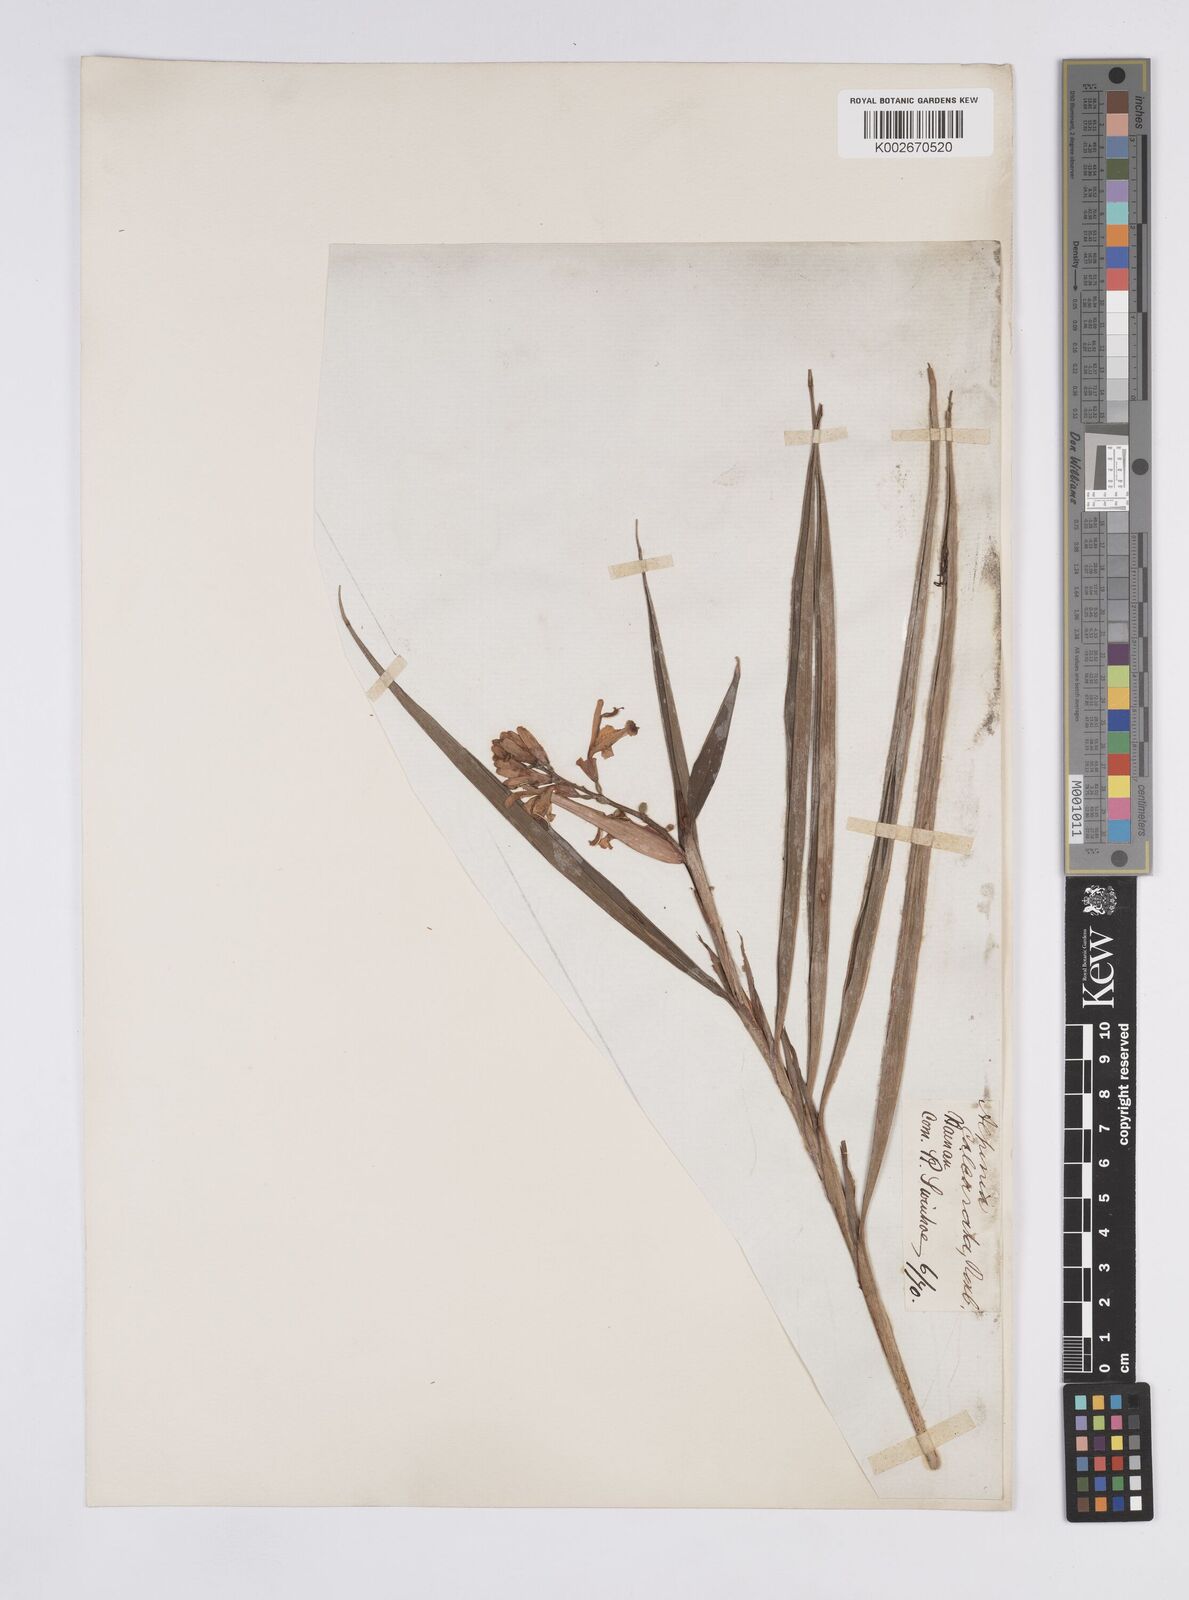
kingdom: Plantae
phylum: Tracheophyta
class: Liliopsida
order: Zingiberales
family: Zingiberaceae
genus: Alpinia
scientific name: Alpinia
